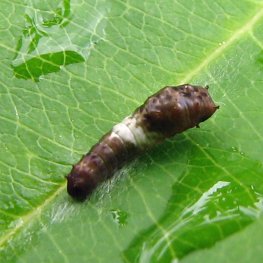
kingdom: Animalia
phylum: Arthropoda
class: Insecta
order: Lepidoptera
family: Papilionidae
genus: Pterourus
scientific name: Pterourus glaucus
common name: Eastern Tiger Swallowtail
